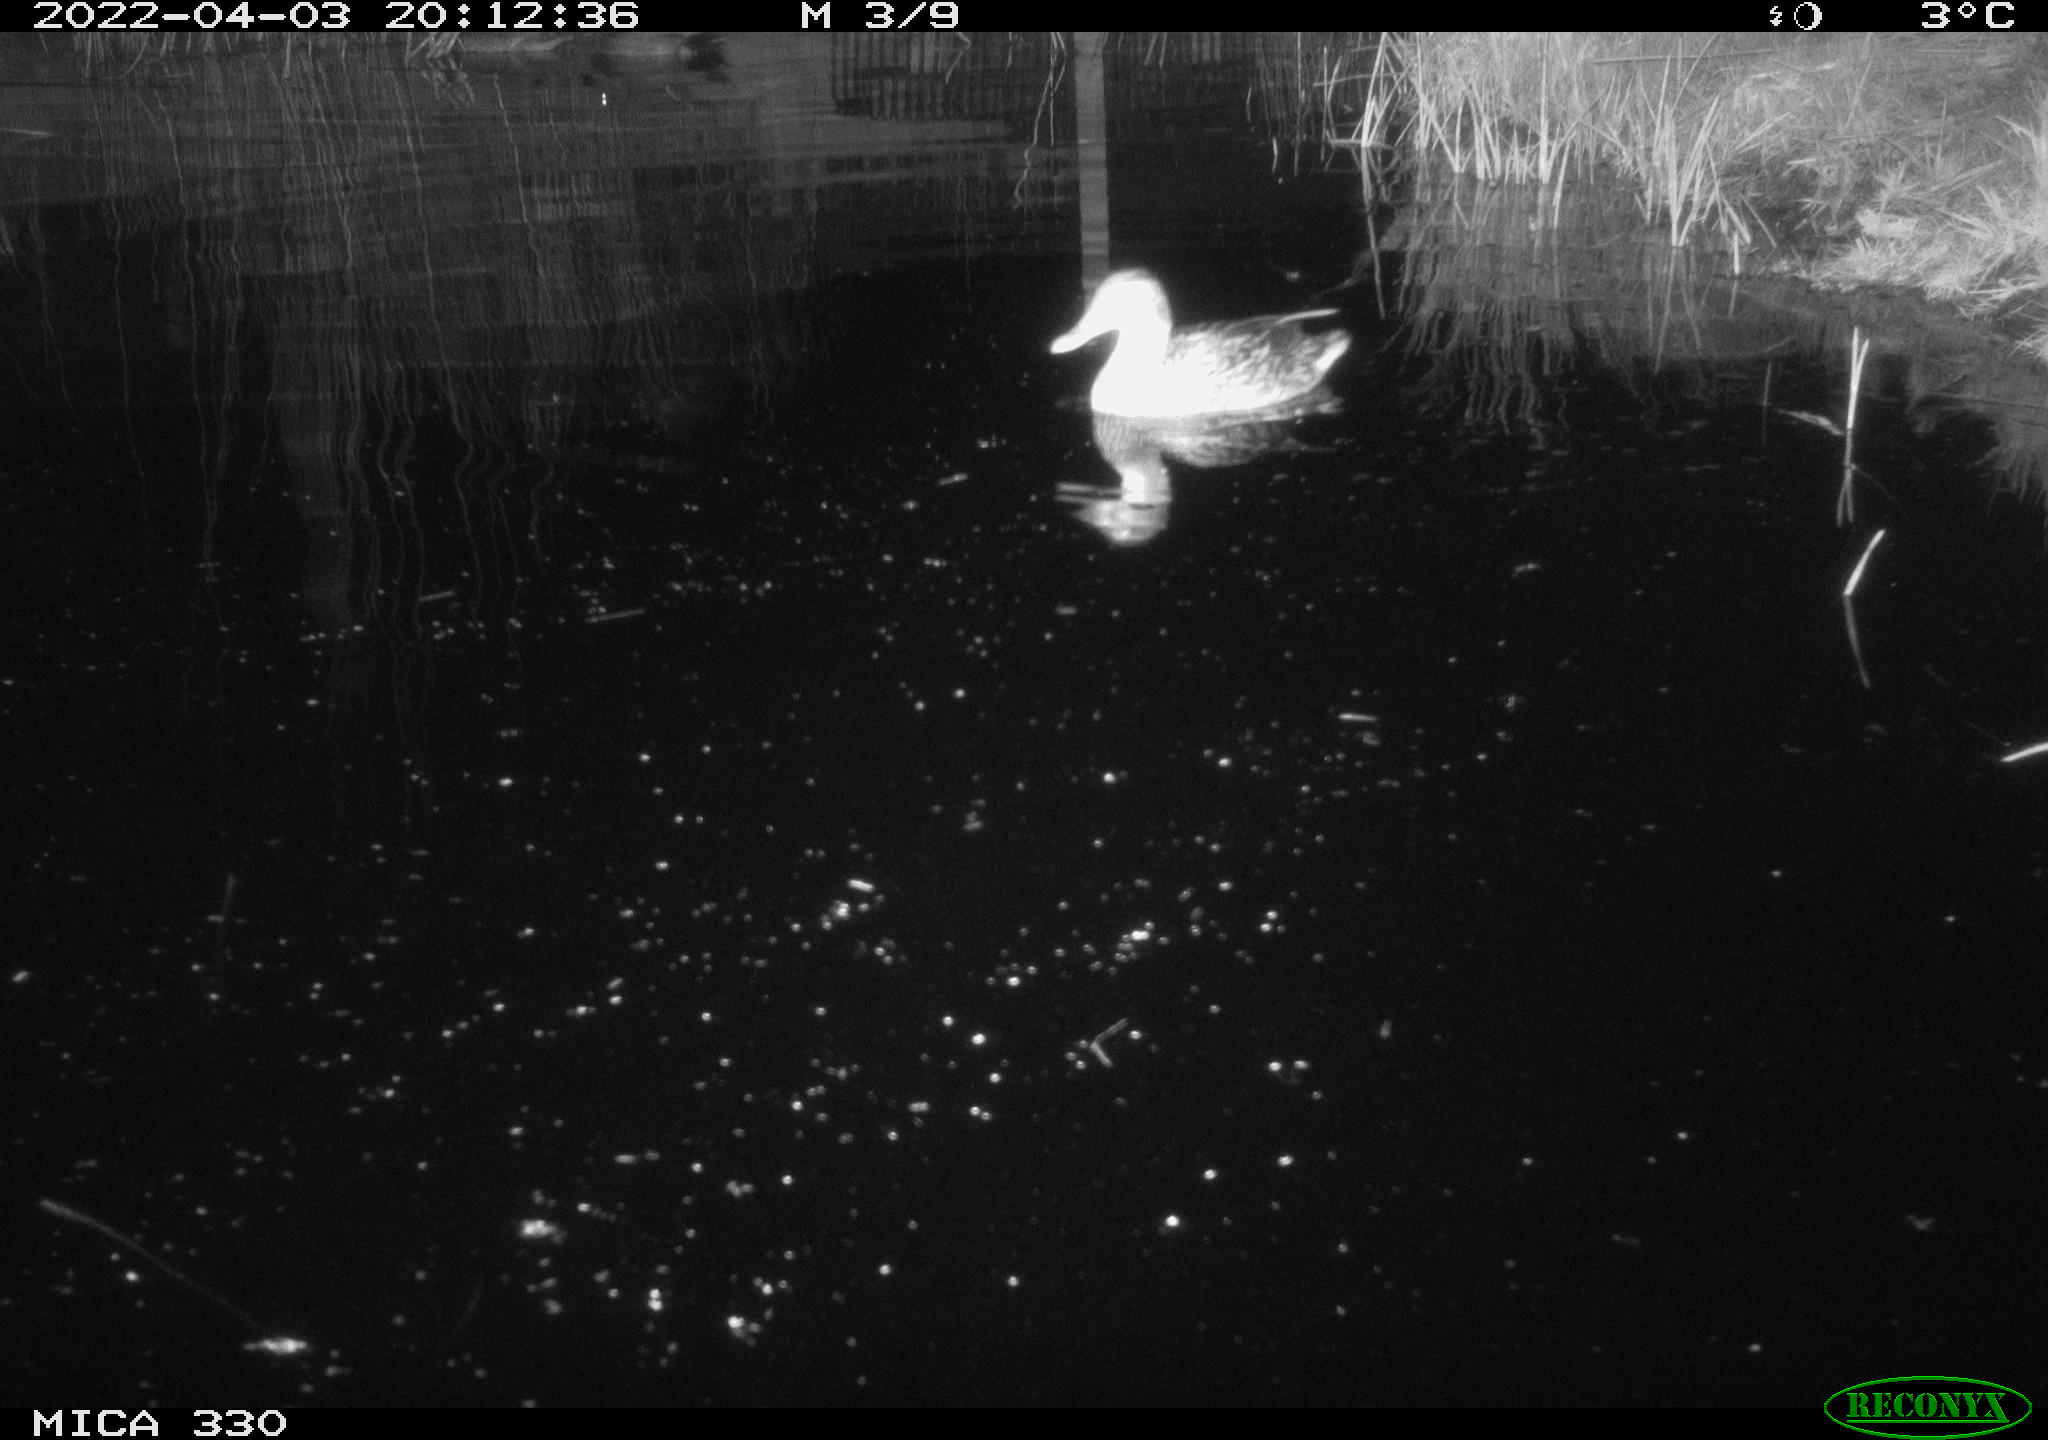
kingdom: Animalia
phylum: Chordata
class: Aves
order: Anseriformes
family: Anatidae
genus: Anas
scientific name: Anas platyrhynchos
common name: Mallard
